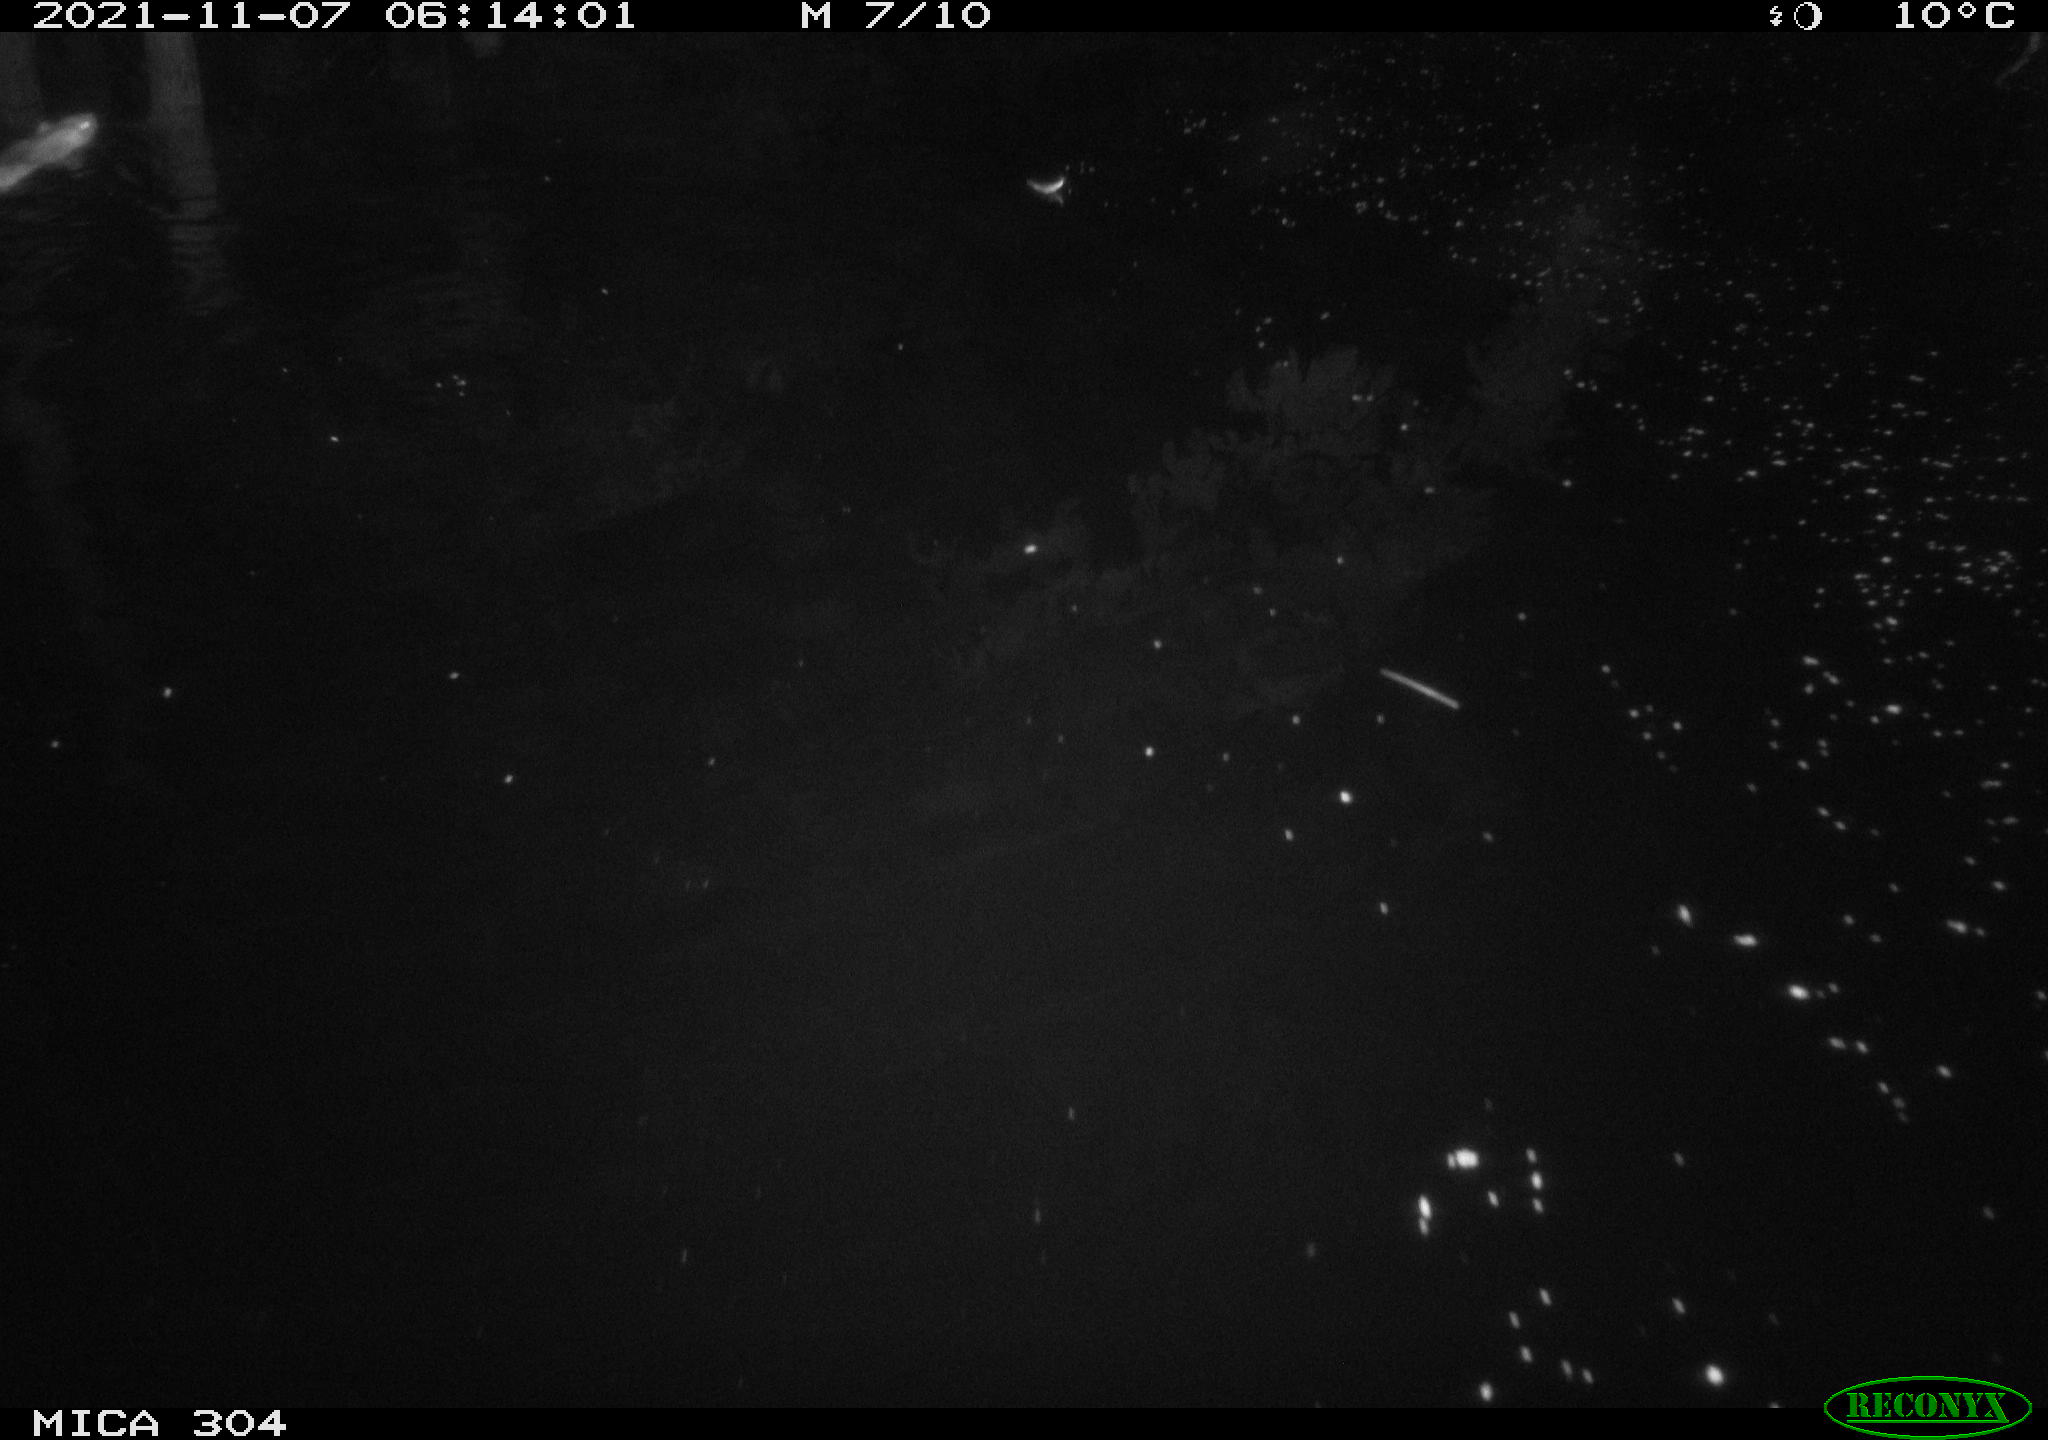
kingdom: Animalia
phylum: Chordata
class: Mammalia
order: Rodentia
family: Muridae
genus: Rattus
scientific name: Rattus norvegicus
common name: Brown rat
